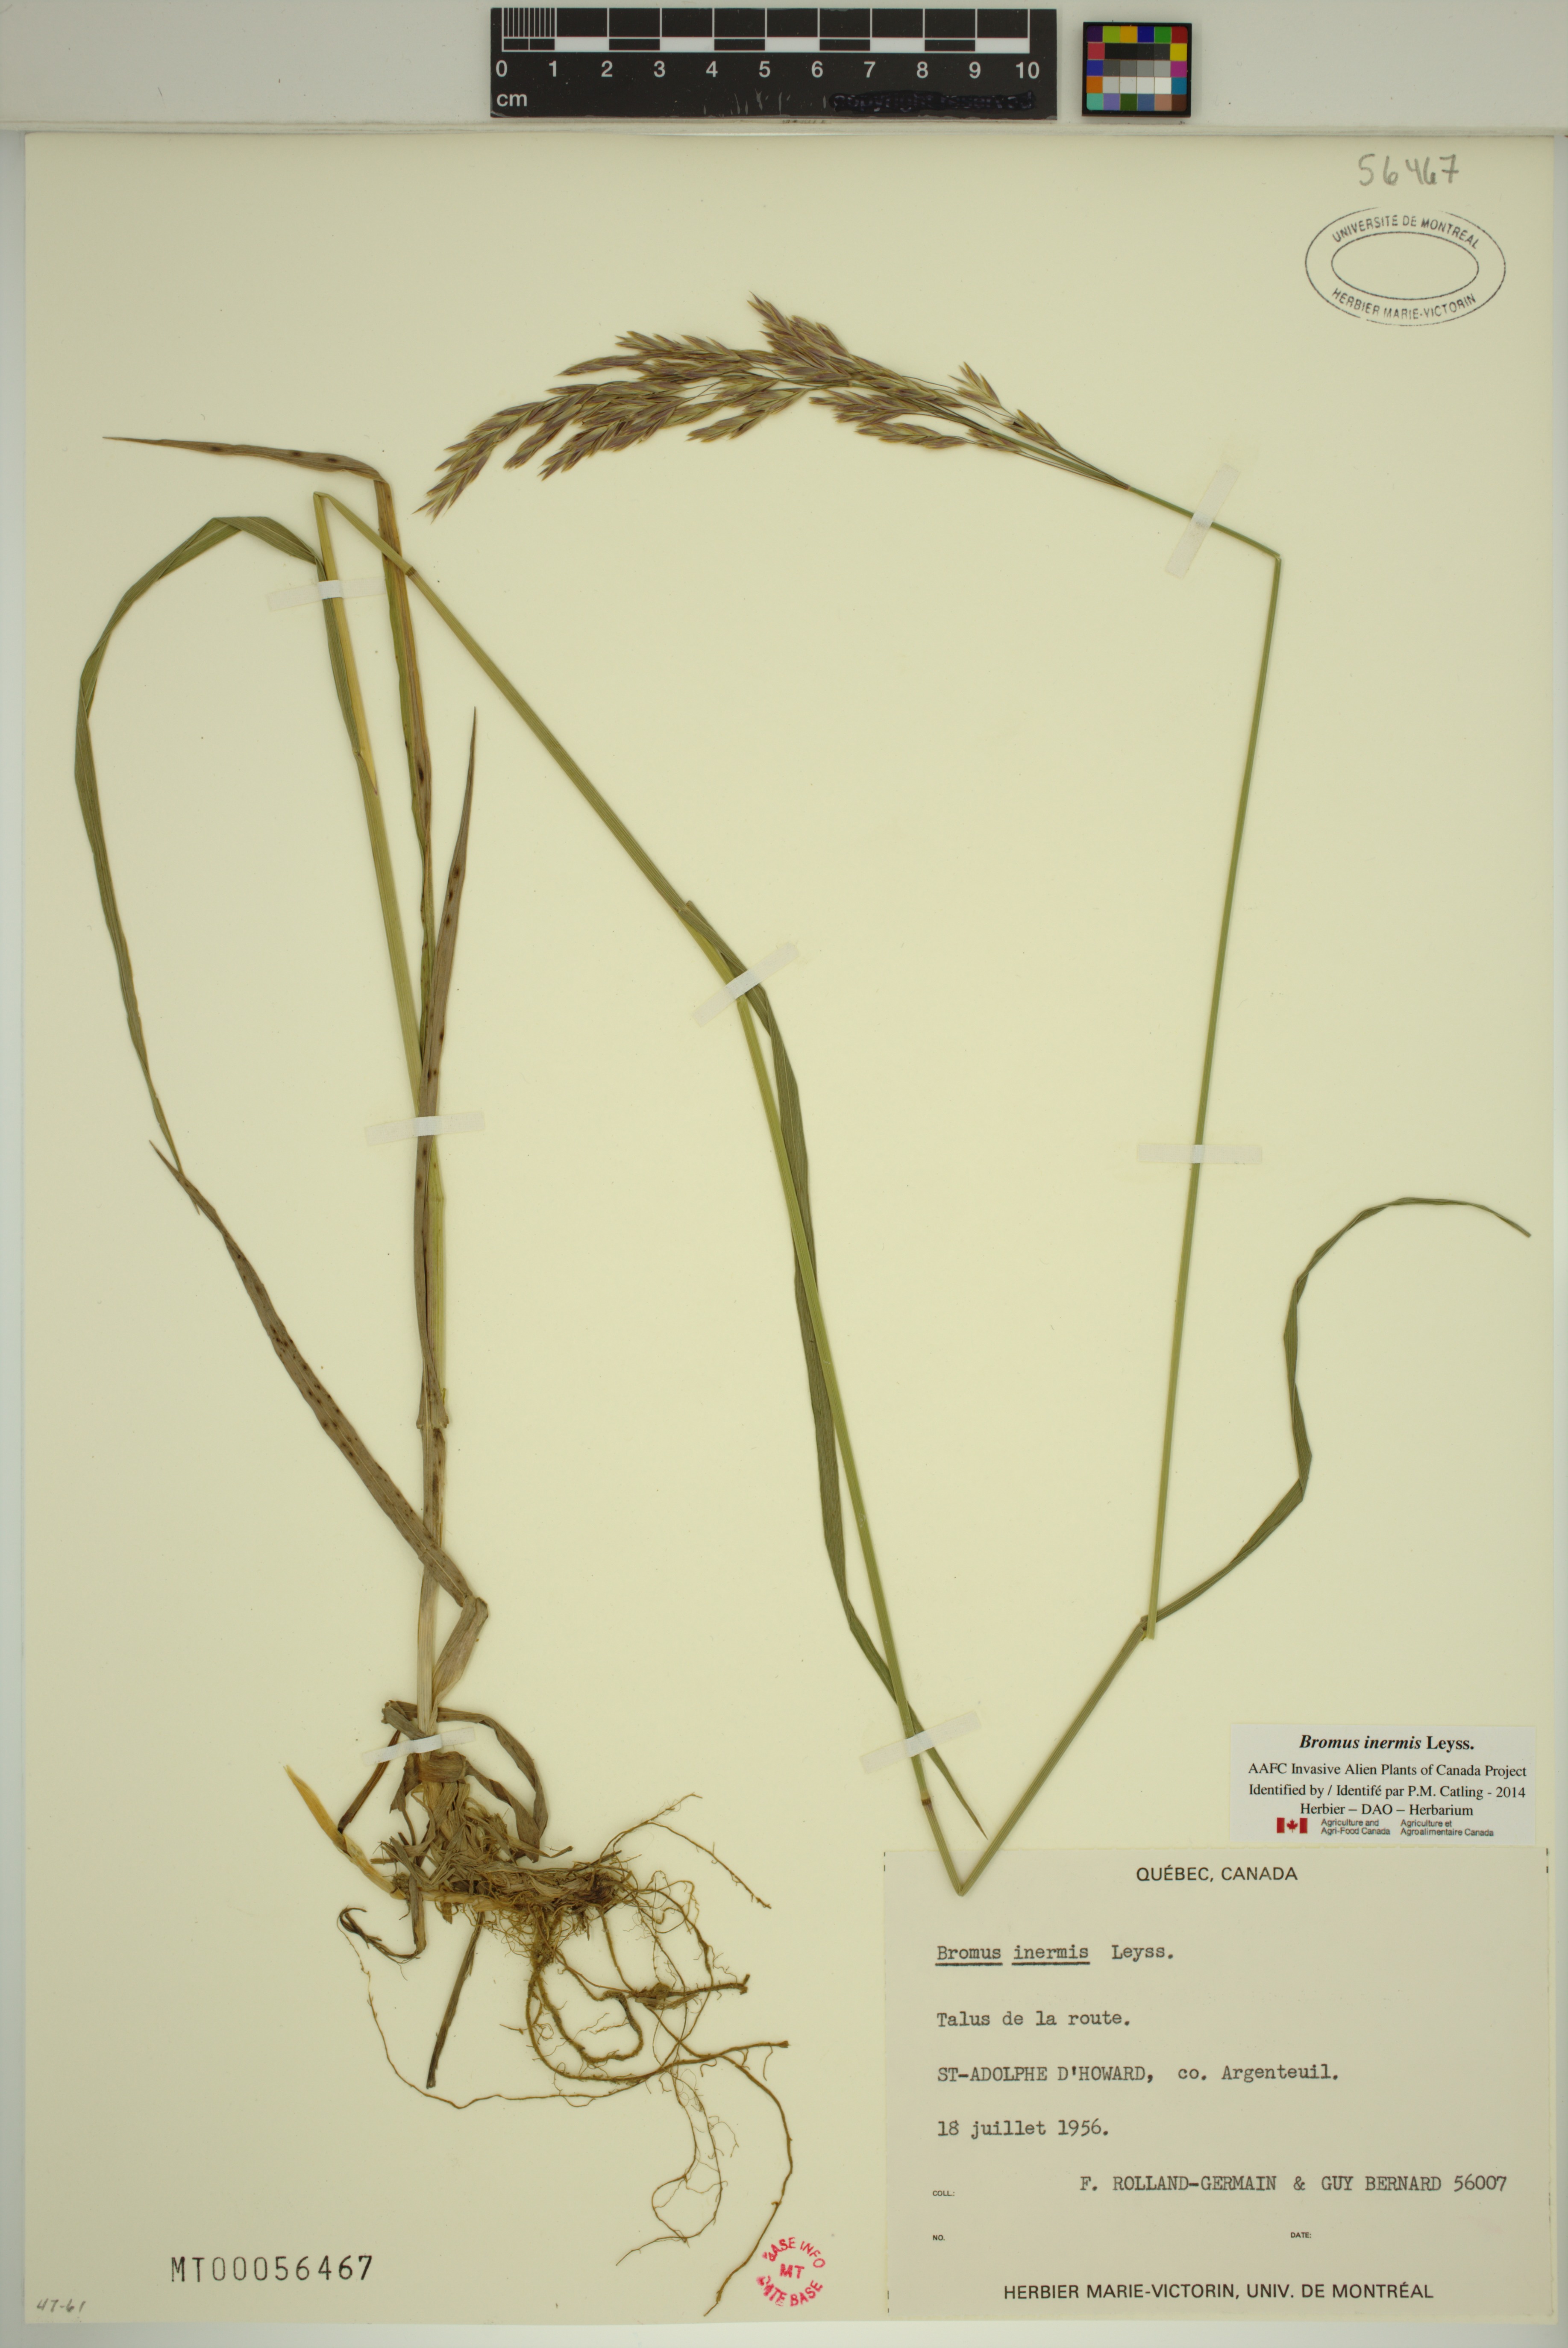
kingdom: Plantae
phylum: Tracheophyta
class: Liliopsida
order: Poales
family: Poaceae
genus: Bromus
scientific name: Bromus inermis
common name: Smooth brome
